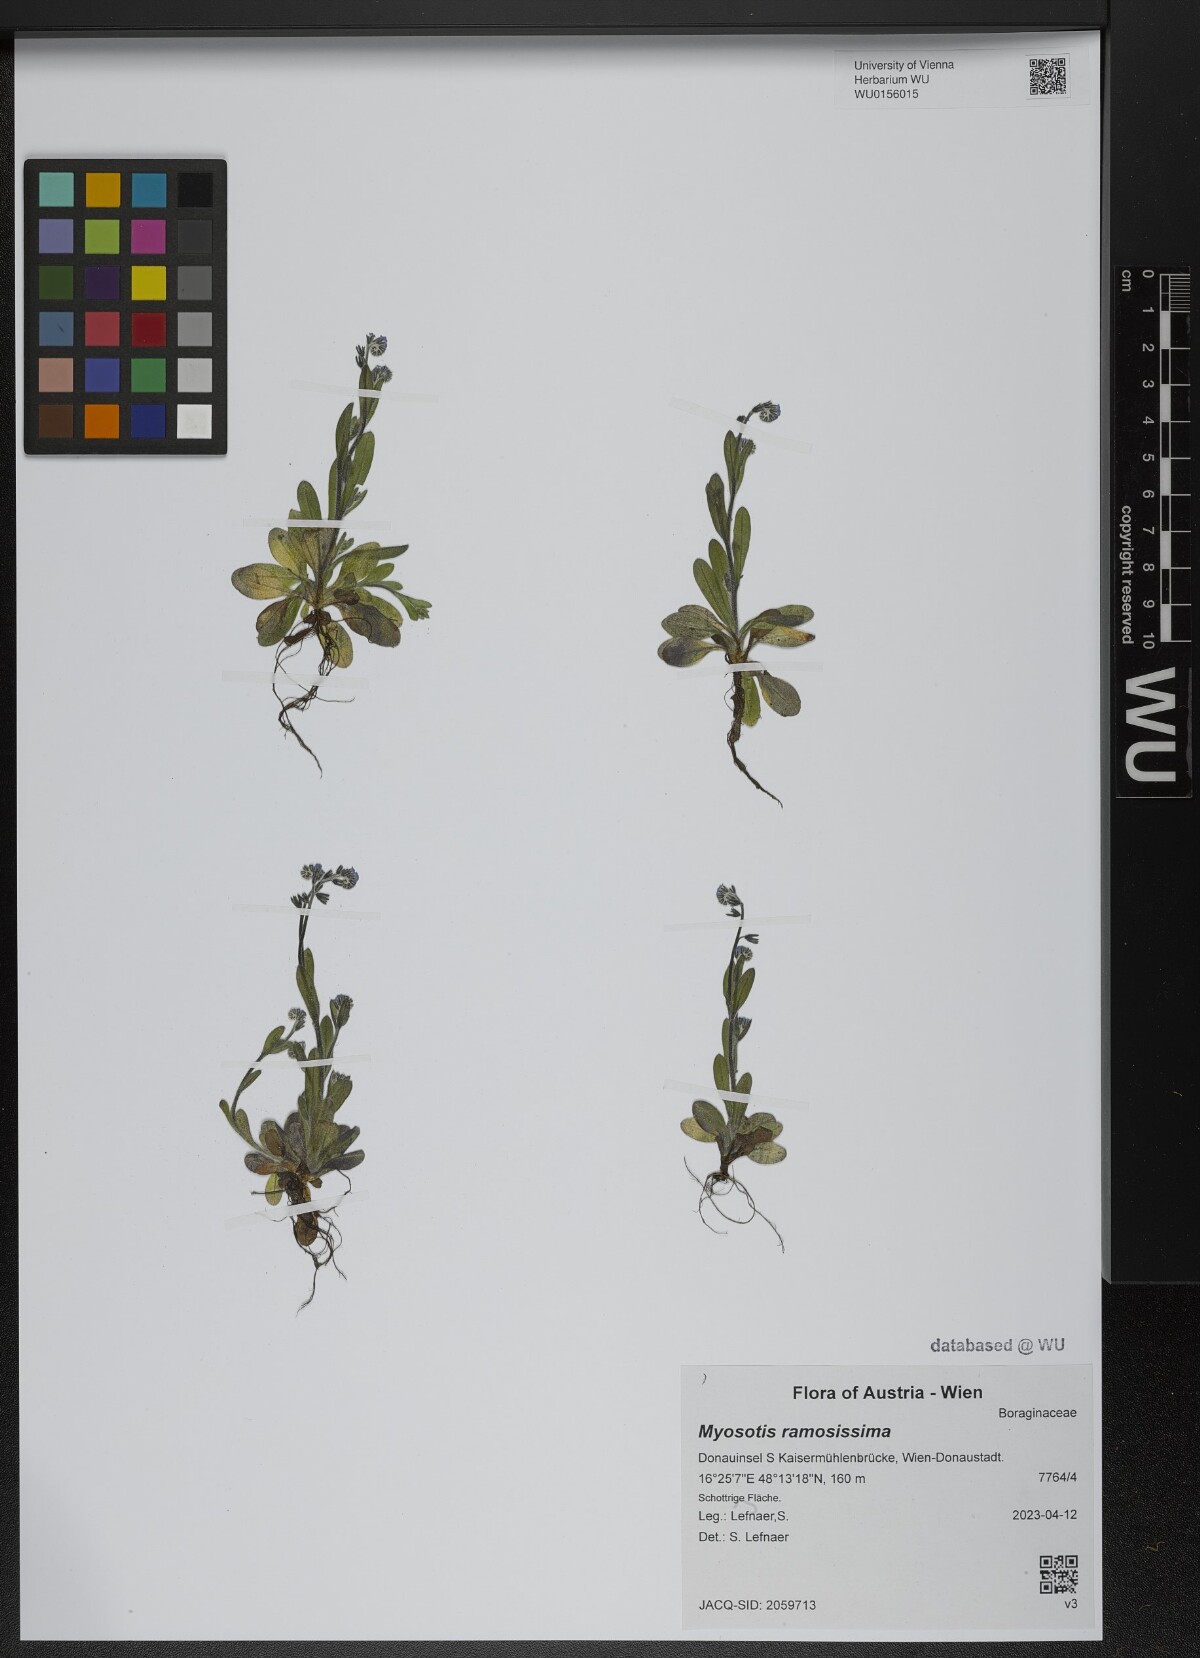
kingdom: Plantae
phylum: Tracheophyta
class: Magnoliopsida
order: Boraginales
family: Boraginaceae
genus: Myosotis
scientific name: Myosotis ramosissima
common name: Early forget-me-not
